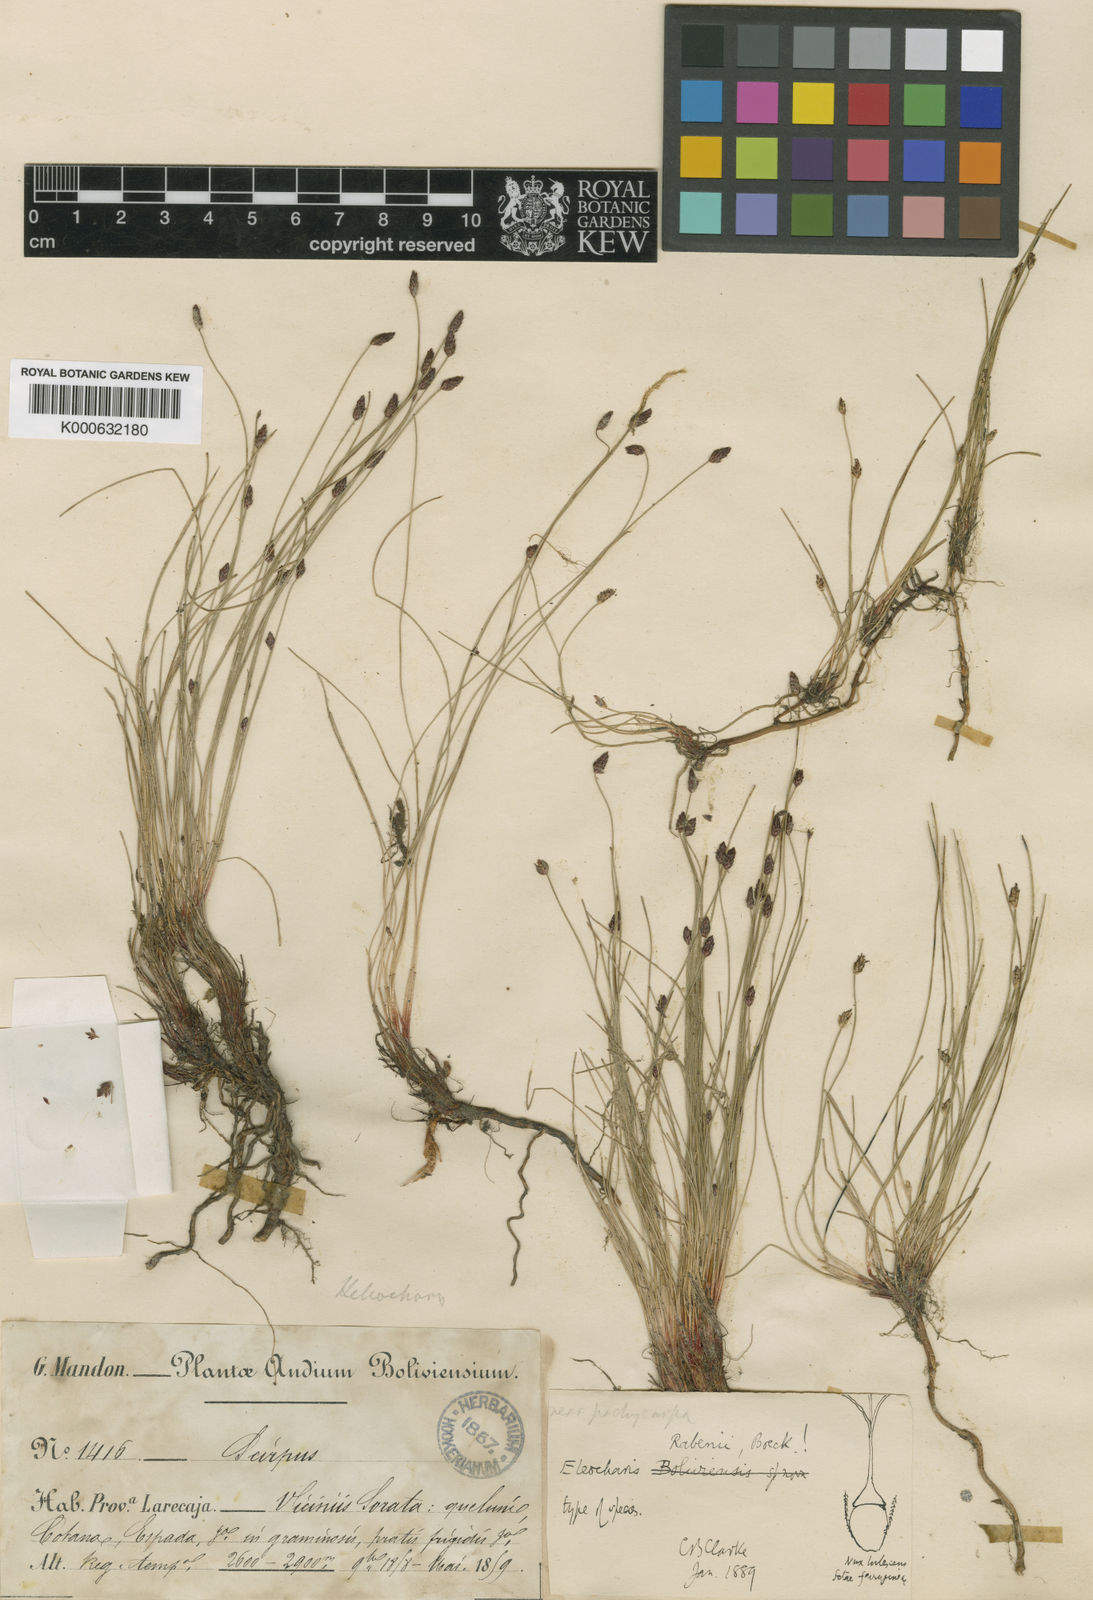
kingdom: Plantae
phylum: Tracheophyta
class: Liliopsida
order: Poales
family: Cyperaceae
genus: Eleocharis
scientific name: Eleocharis rabenii
